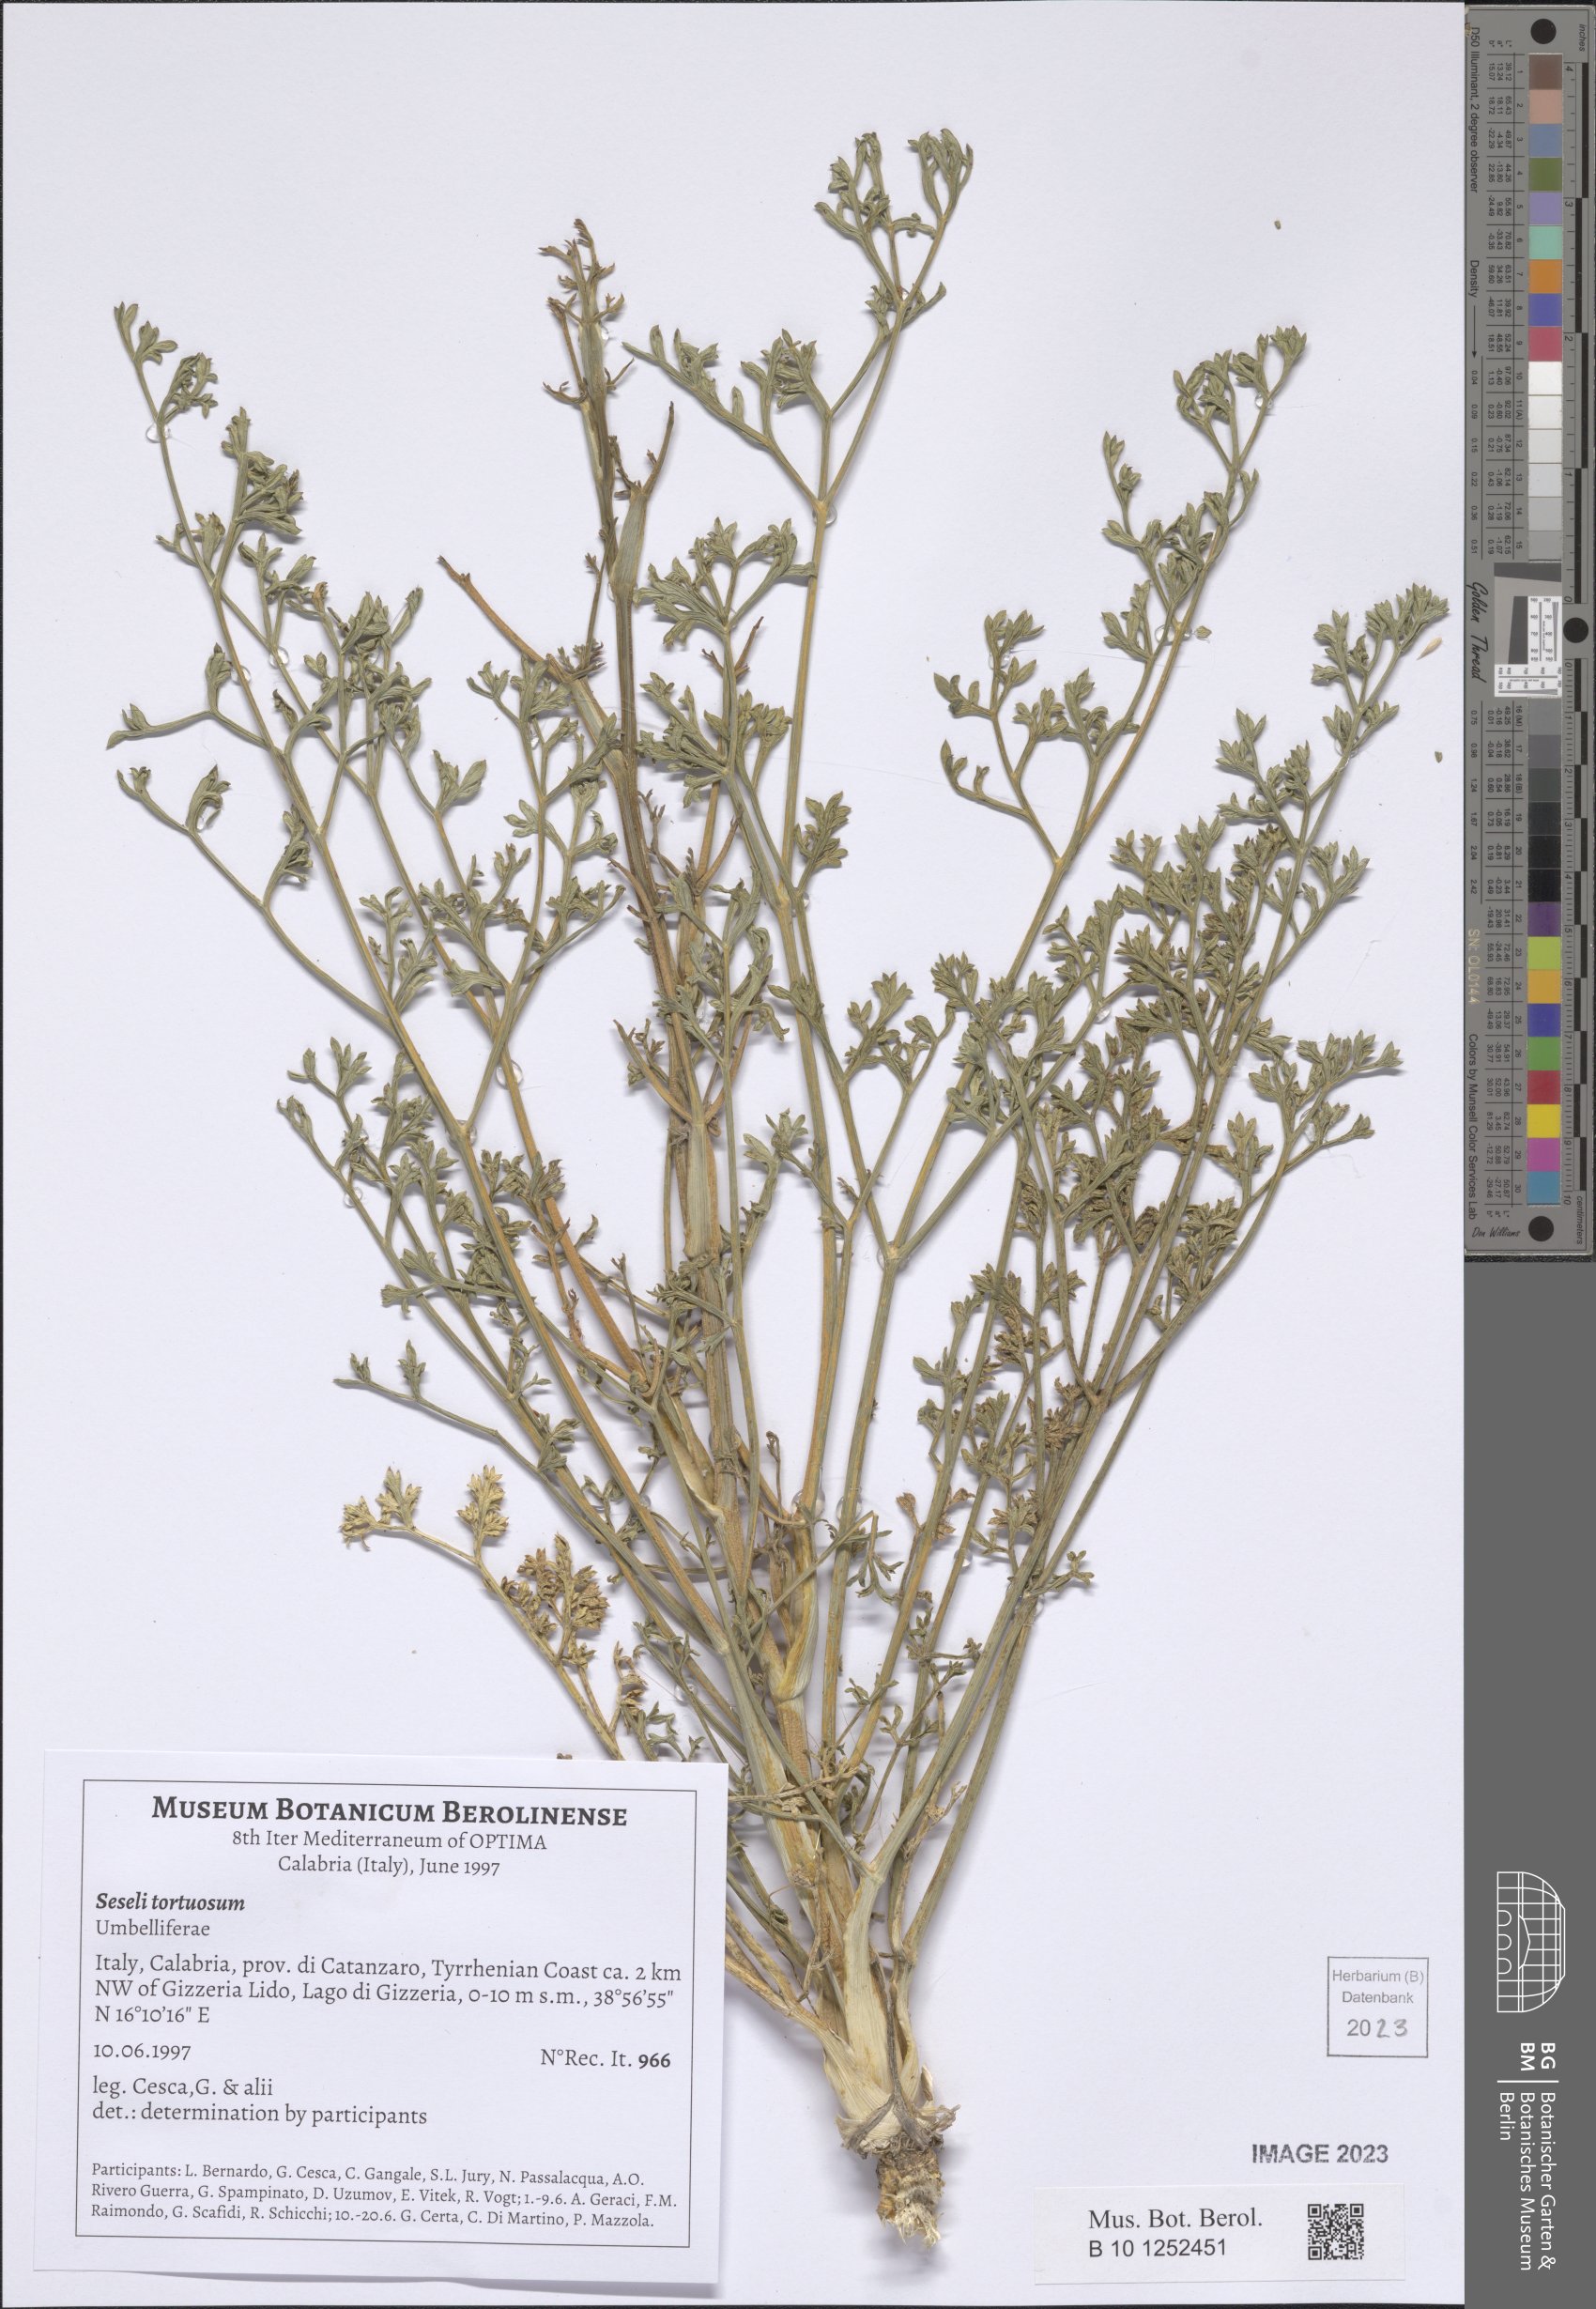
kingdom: Plantae
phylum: Tracheophyta
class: Magnoliopsida
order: Apiales
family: Apiaceae
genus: Seseli
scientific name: Seseli tortuosum
